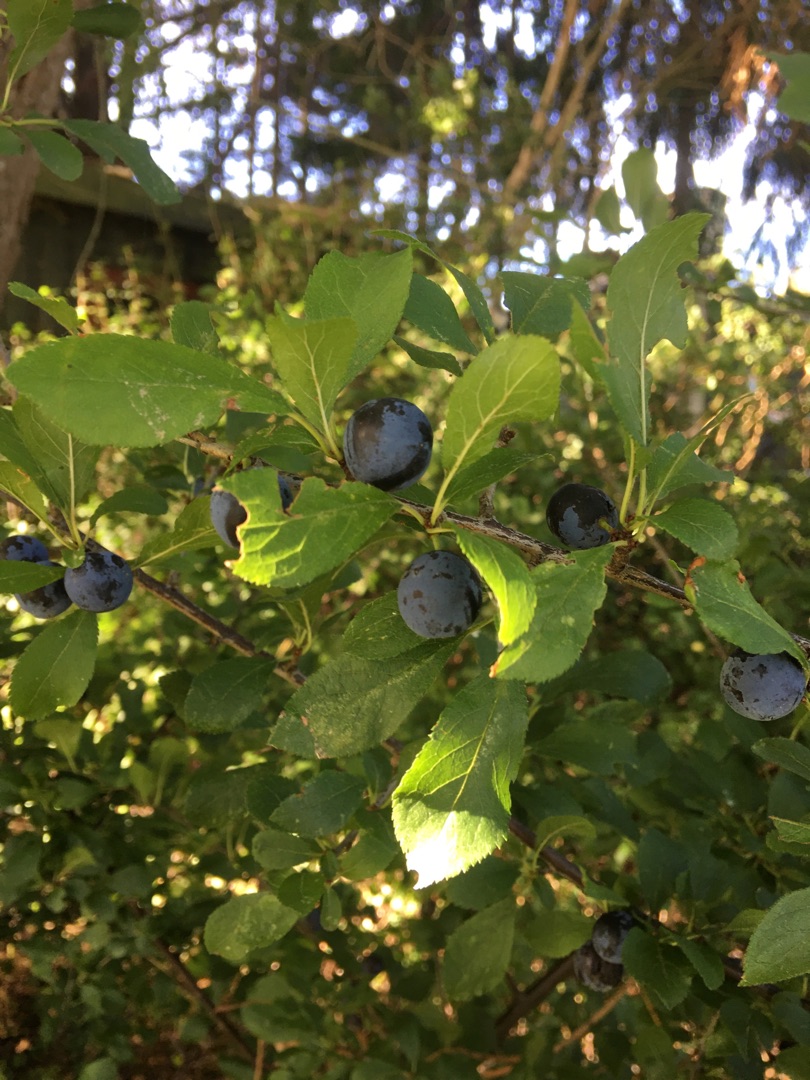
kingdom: Plantae
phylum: Tracheophyta
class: Magnoliopsida
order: Rosales
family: Rosaceae
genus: Prunus
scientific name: Prunus spinosa
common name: Slåen
